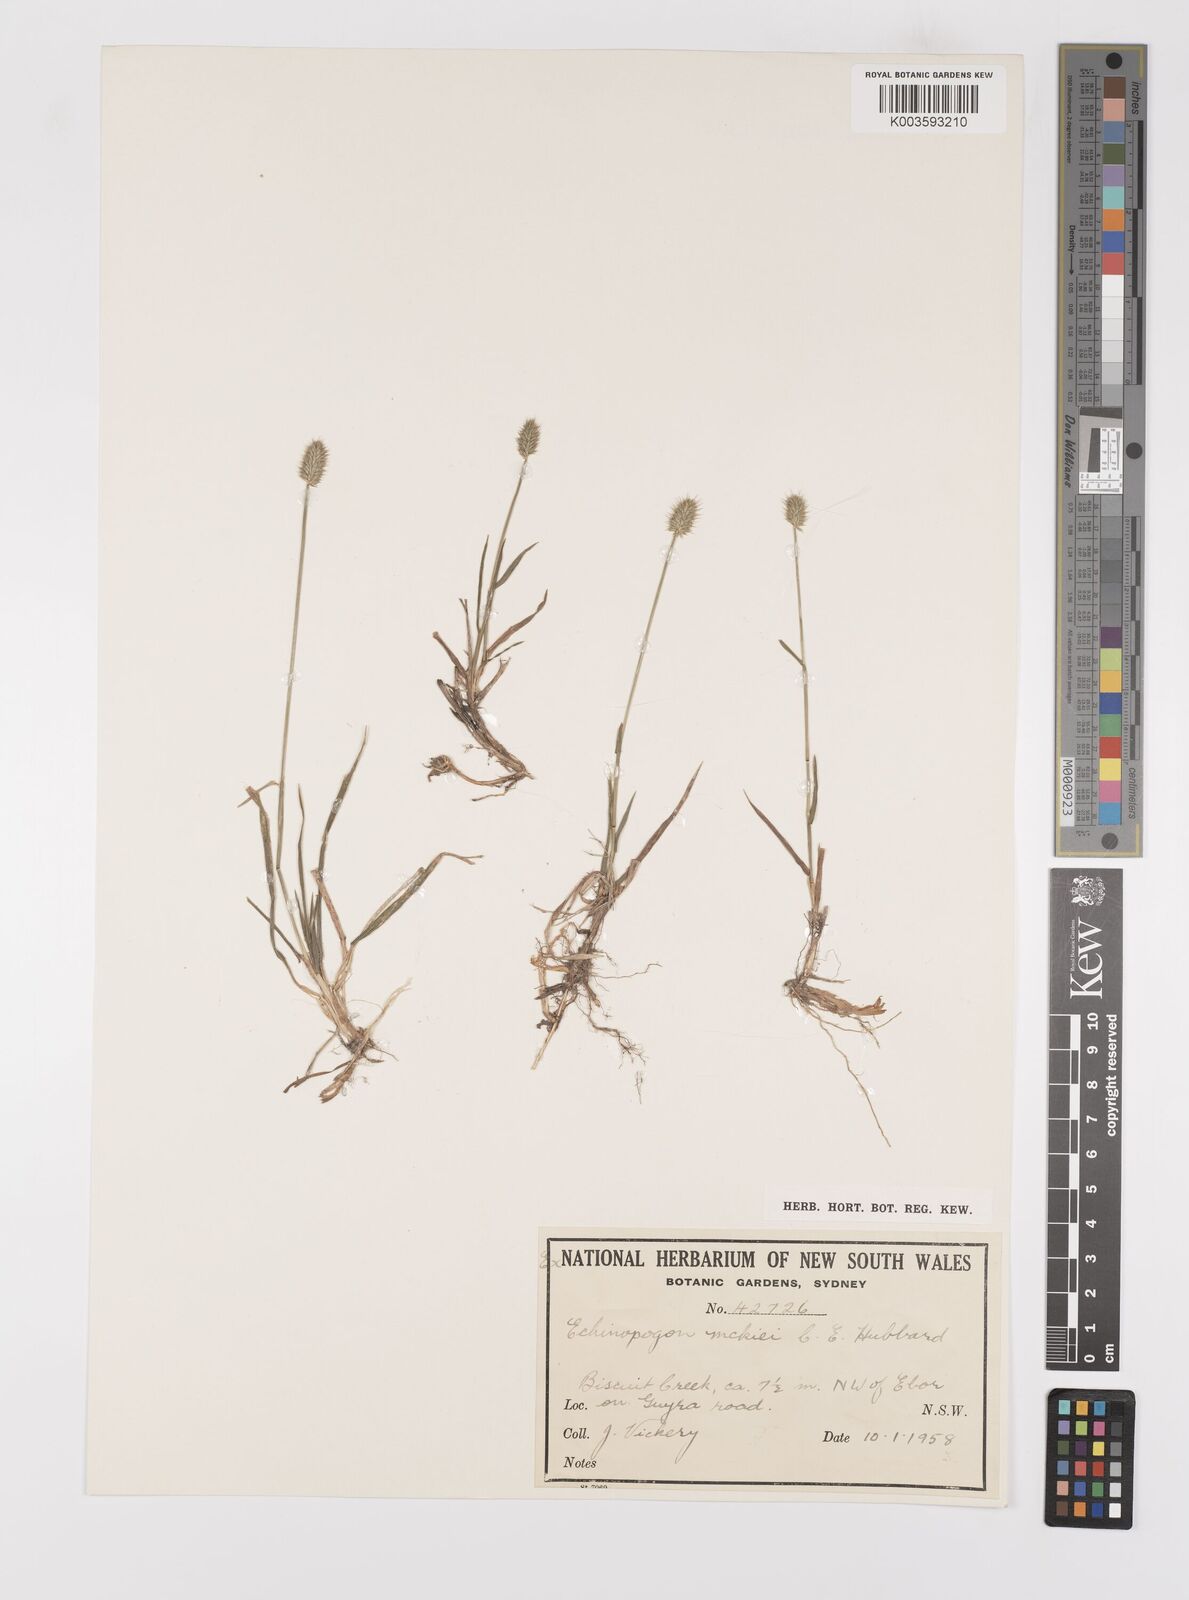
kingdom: Plantae
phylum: Tracheophyta
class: Liliopsida
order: Poales
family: Poaceae
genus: Echinopogon
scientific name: Echinopogon mckiei
